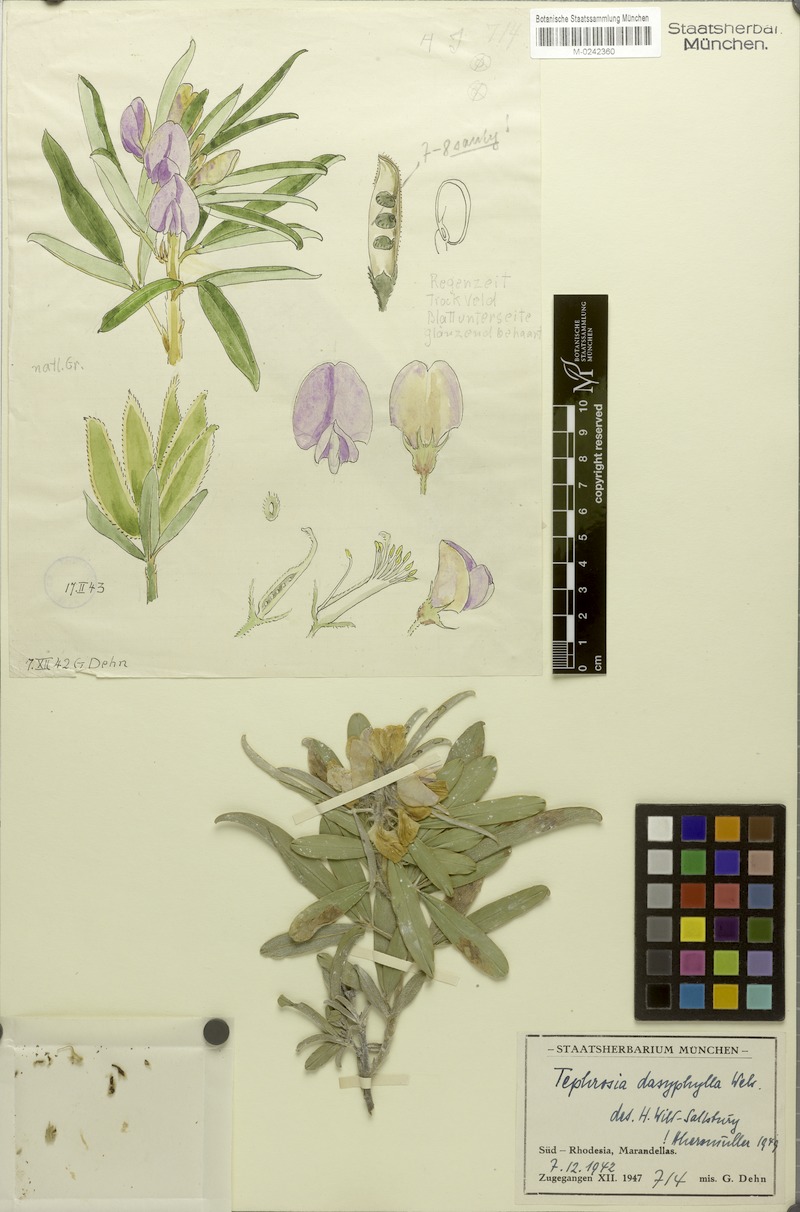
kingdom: Plantae
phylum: Tracheophyta
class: Magnoliopsida
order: Fabales
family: Fabaceae
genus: Tephrosia
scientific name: Tephrosia dasyphylla
